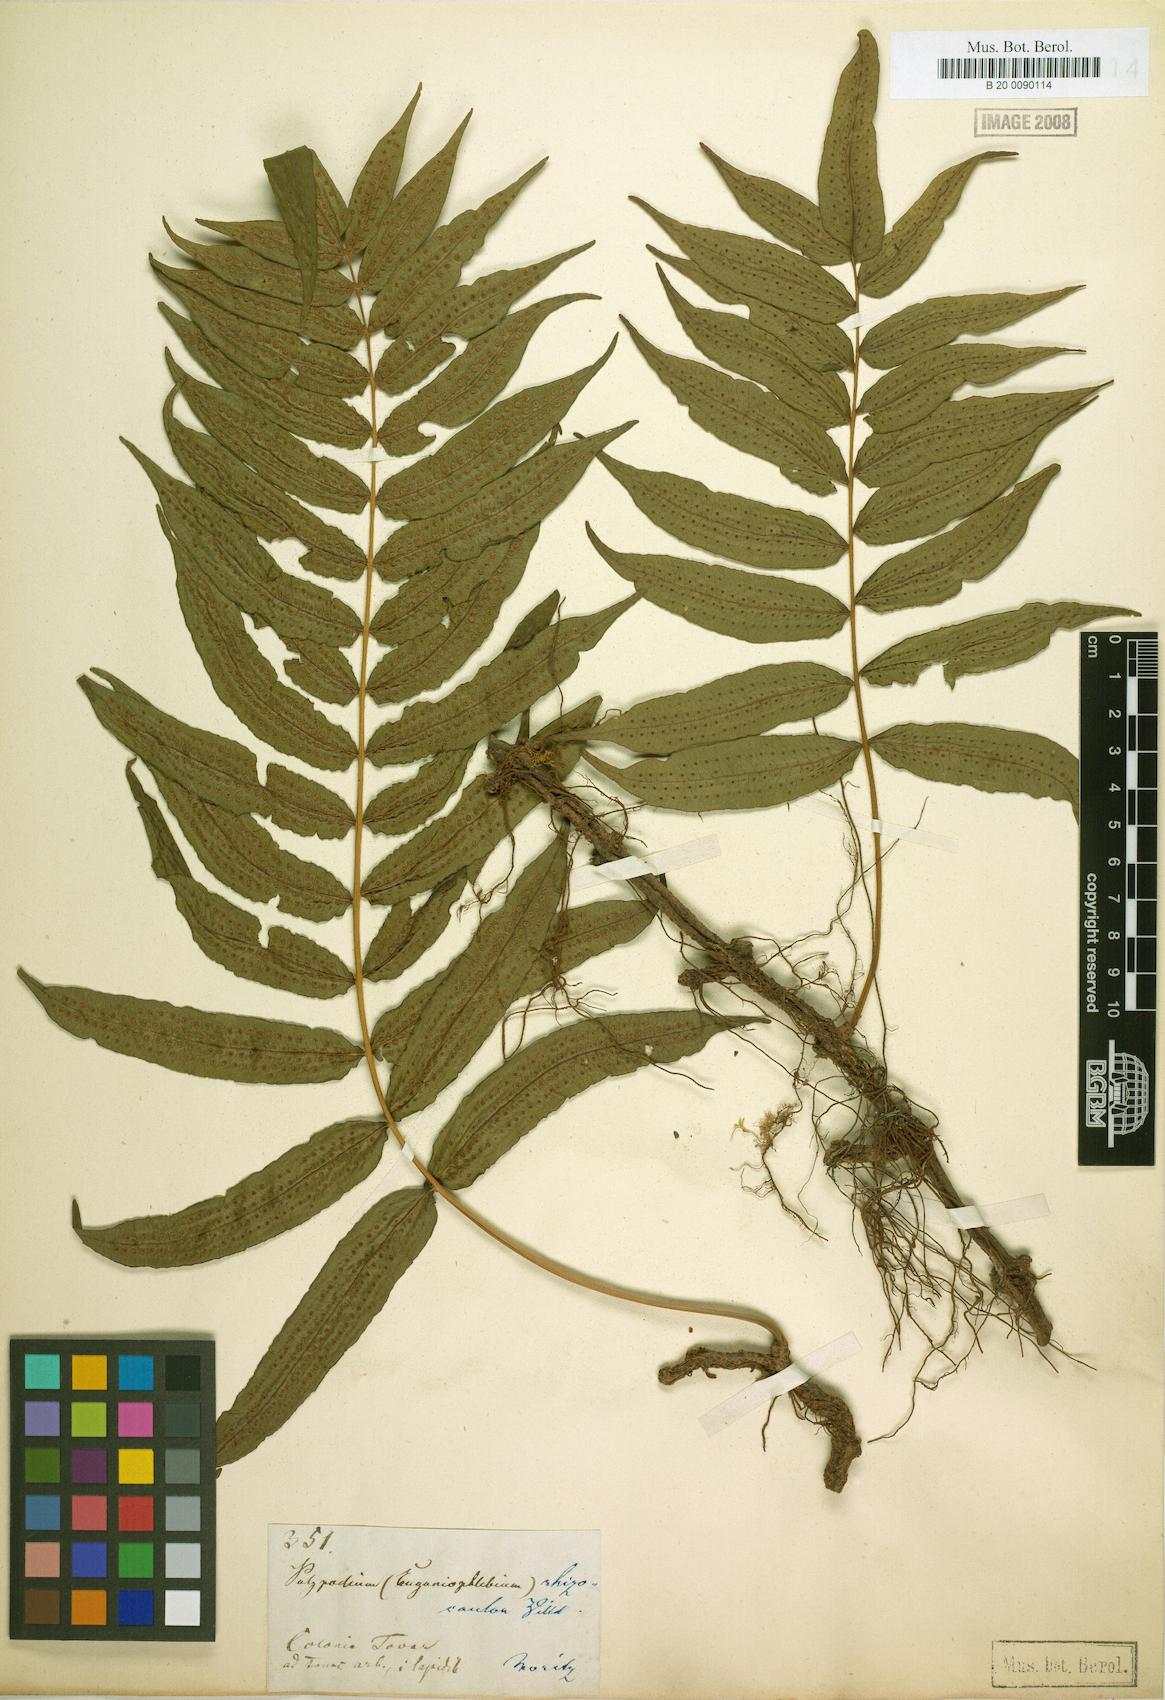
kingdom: Plantae
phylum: Tracheophyta
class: Polypodiopsida
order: Polypodiales
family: Polypodiaceae
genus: Serpocaulon
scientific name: Serpocaulon fraxinifolium
